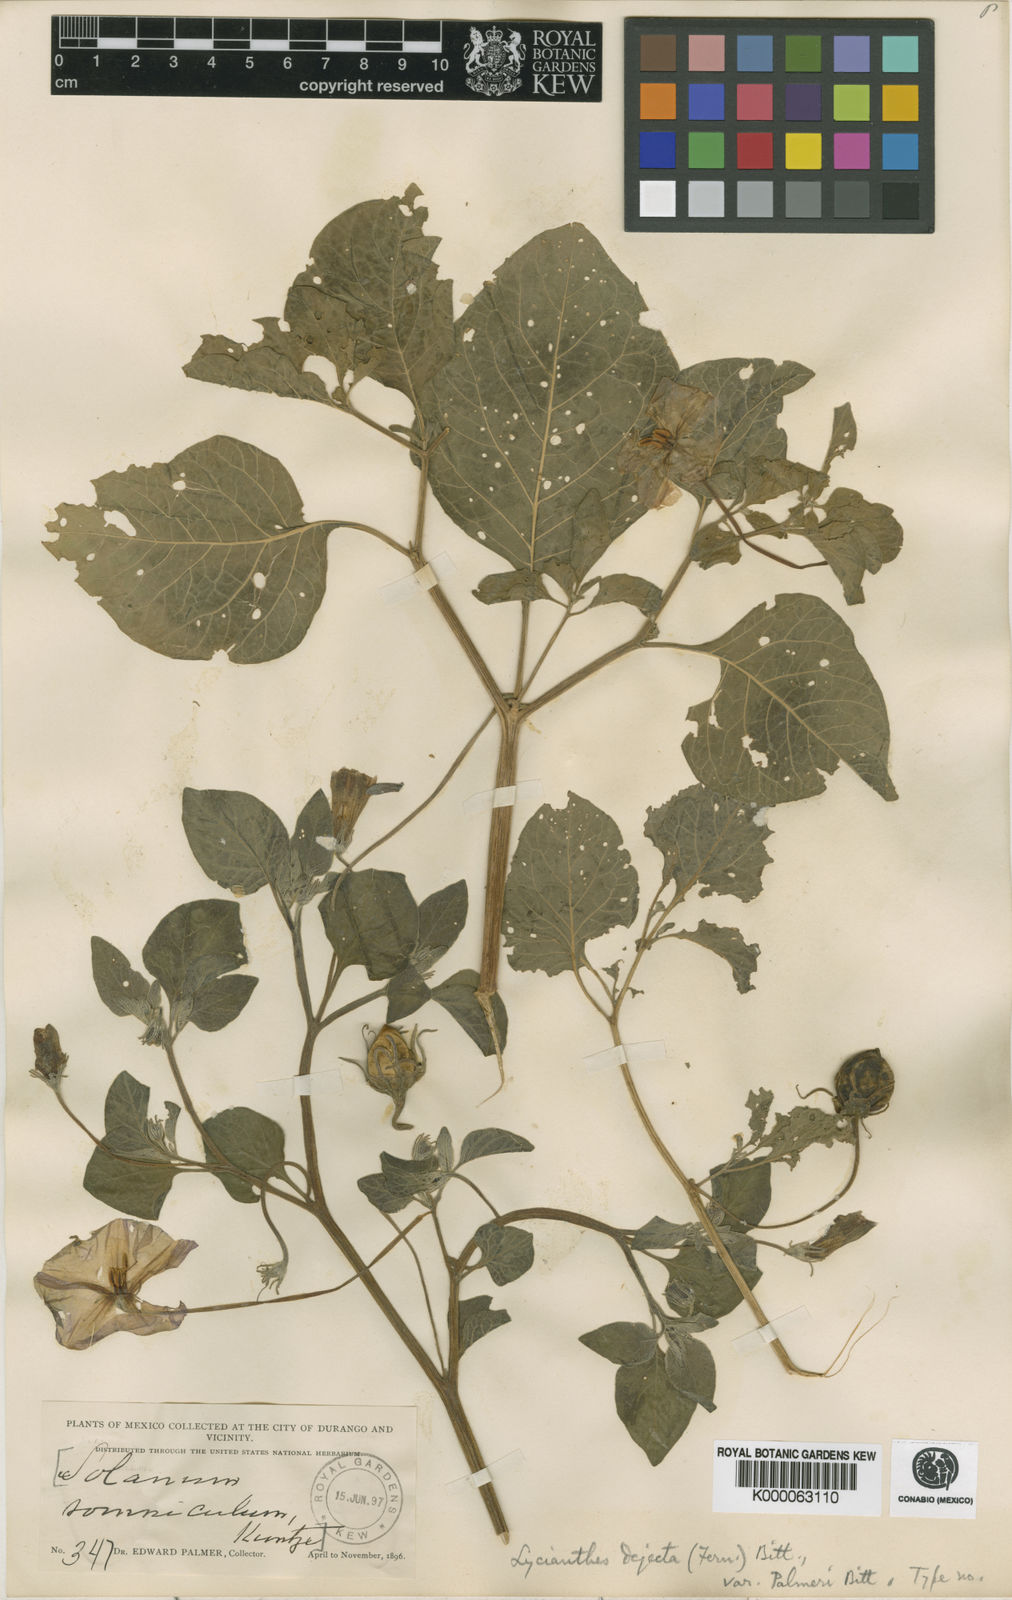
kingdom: Plantae
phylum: Tracheophyta
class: Magnoliopsida
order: Solanales
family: Solanaceae
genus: Lycianthes
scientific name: Lycianthes dejecta
